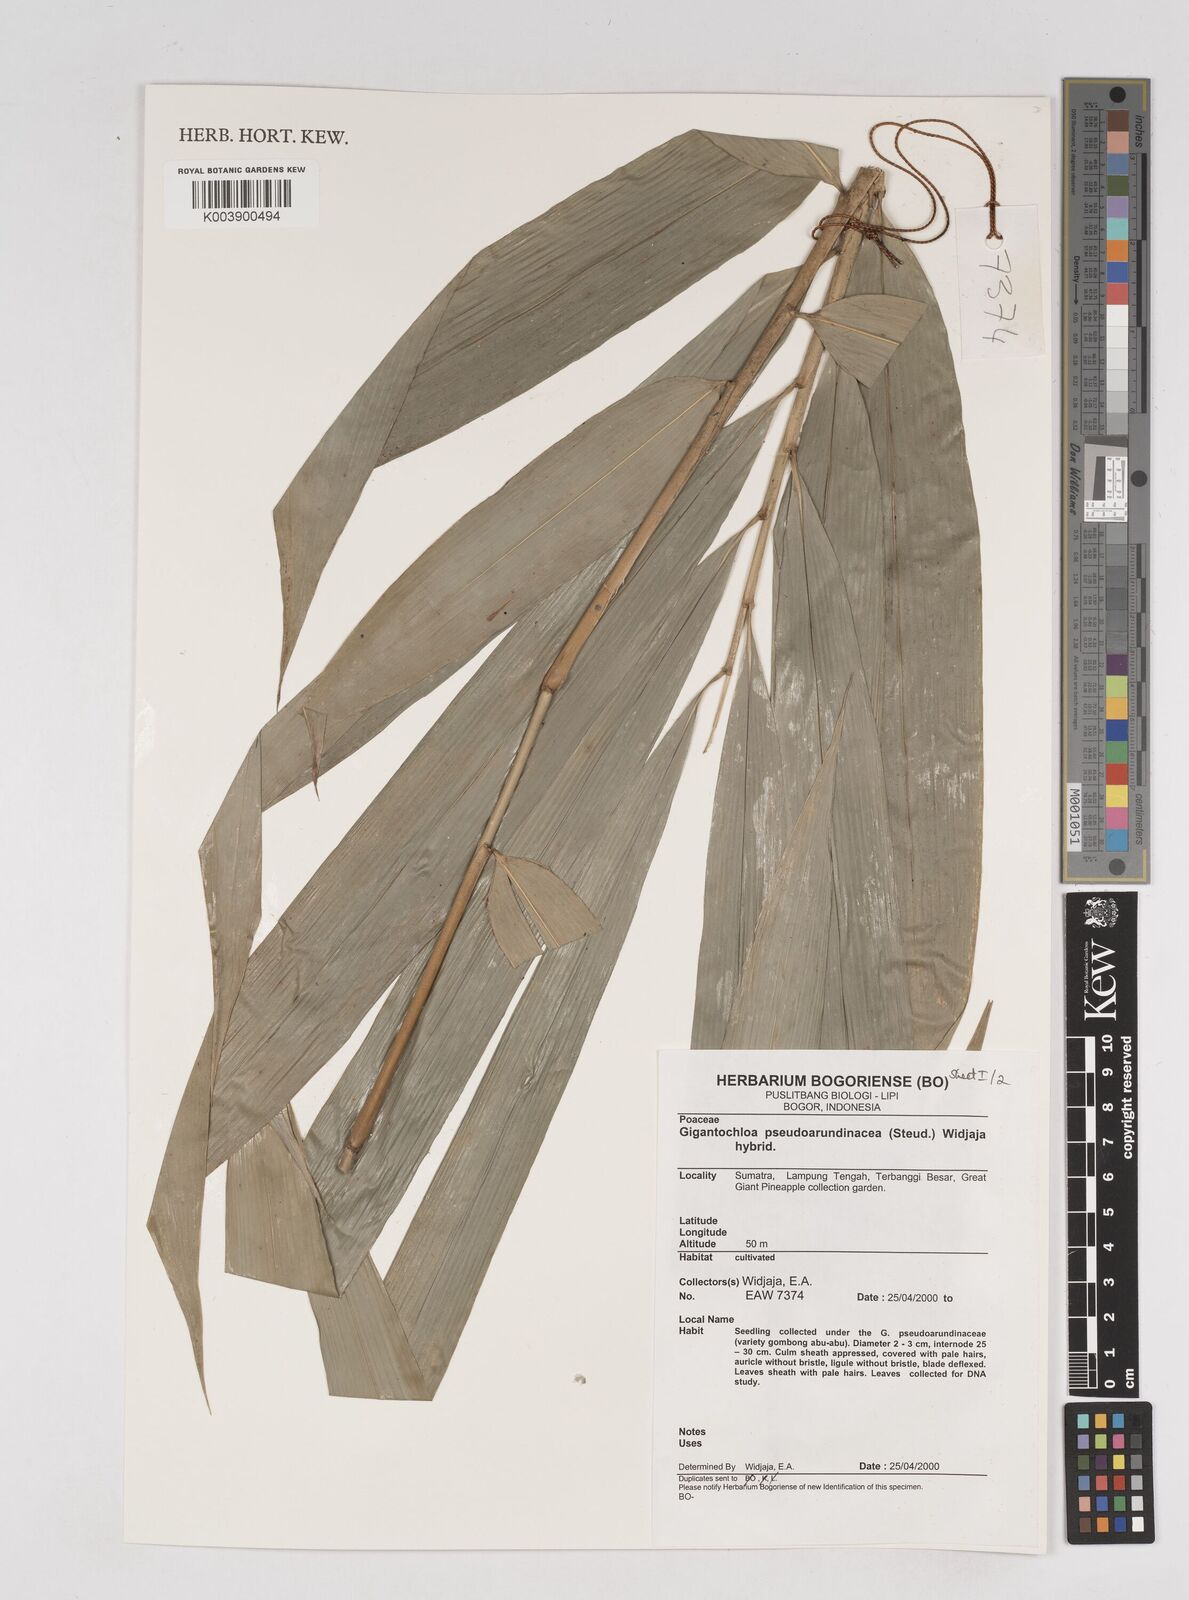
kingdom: Plantae
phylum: Tracheophyta
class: Liliopsida
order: Poales
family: Poaceae
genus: Gigantochloa
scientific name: Gigantochloa verticillata
